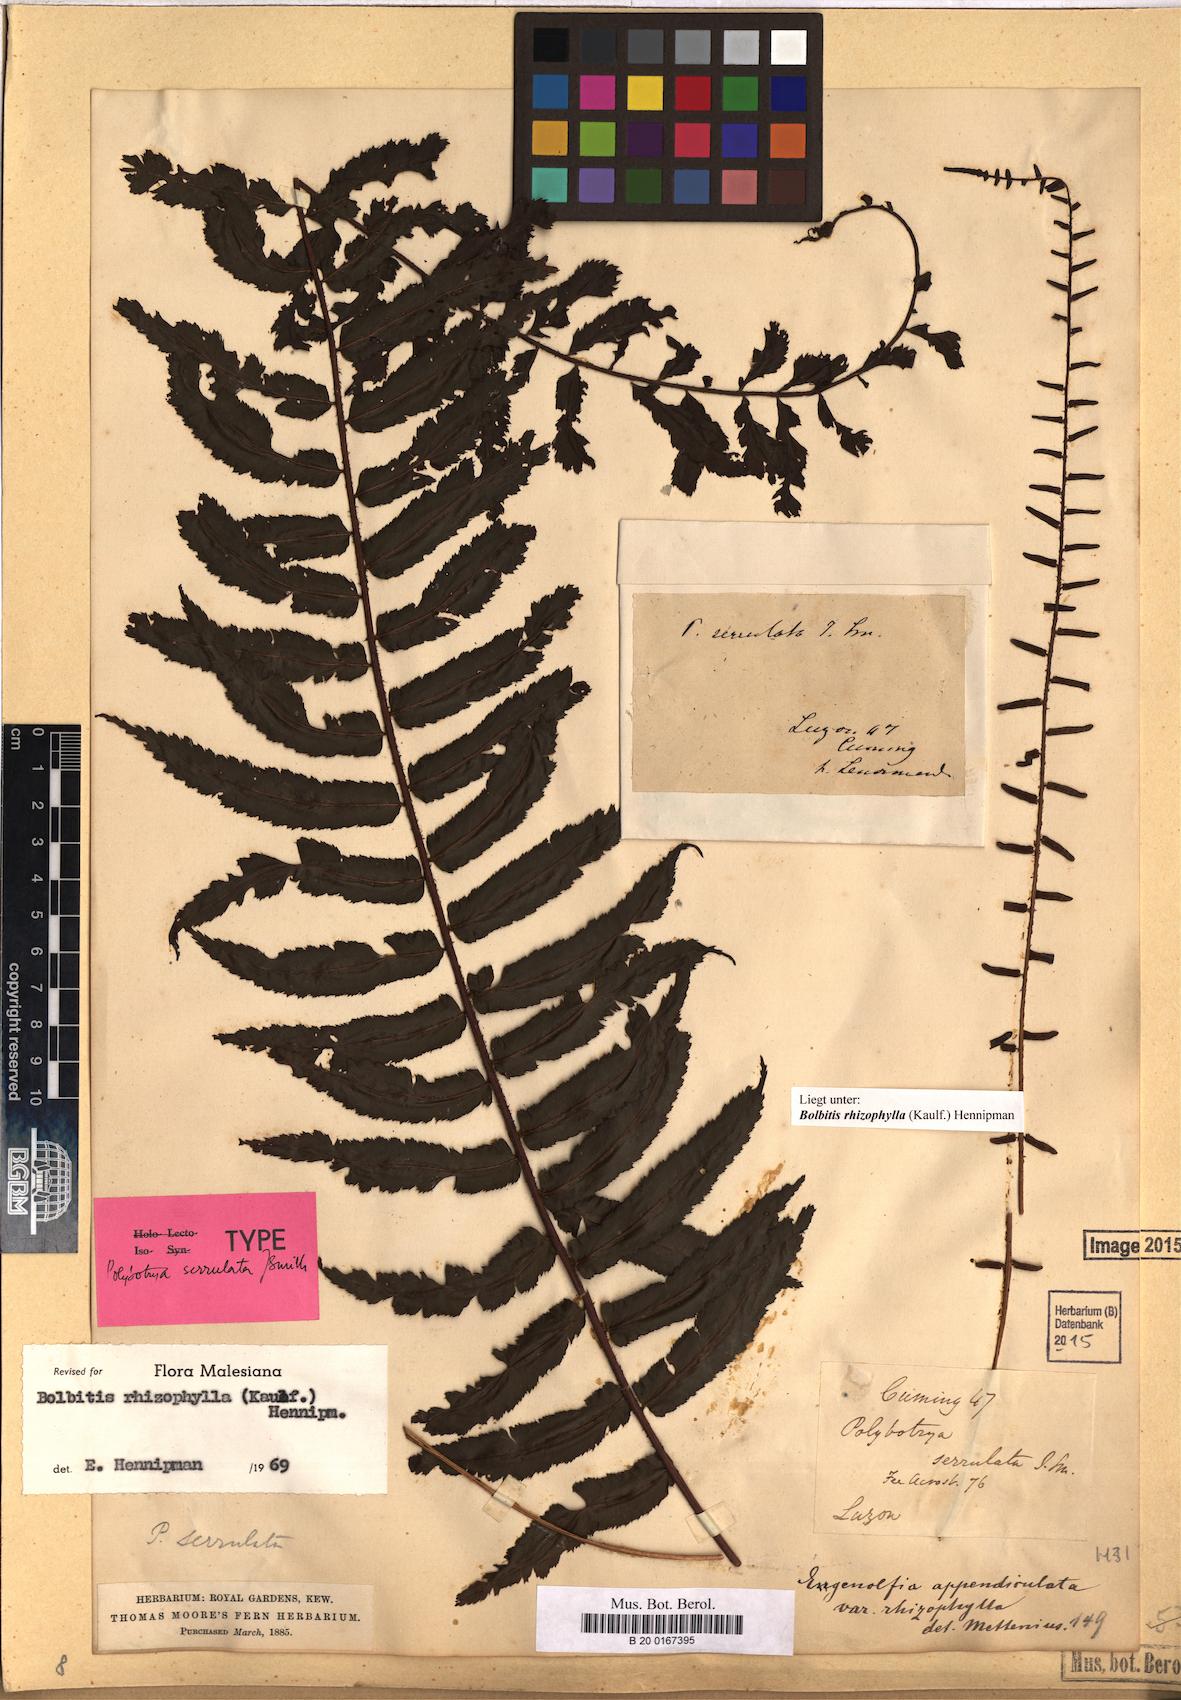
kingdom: Plantae
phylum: Tracheophyta
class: Polypodiopsida
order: Polypodiales
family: Dryopteridaceae
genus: Bolbitis
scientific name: Bolbitis rhizophylla
